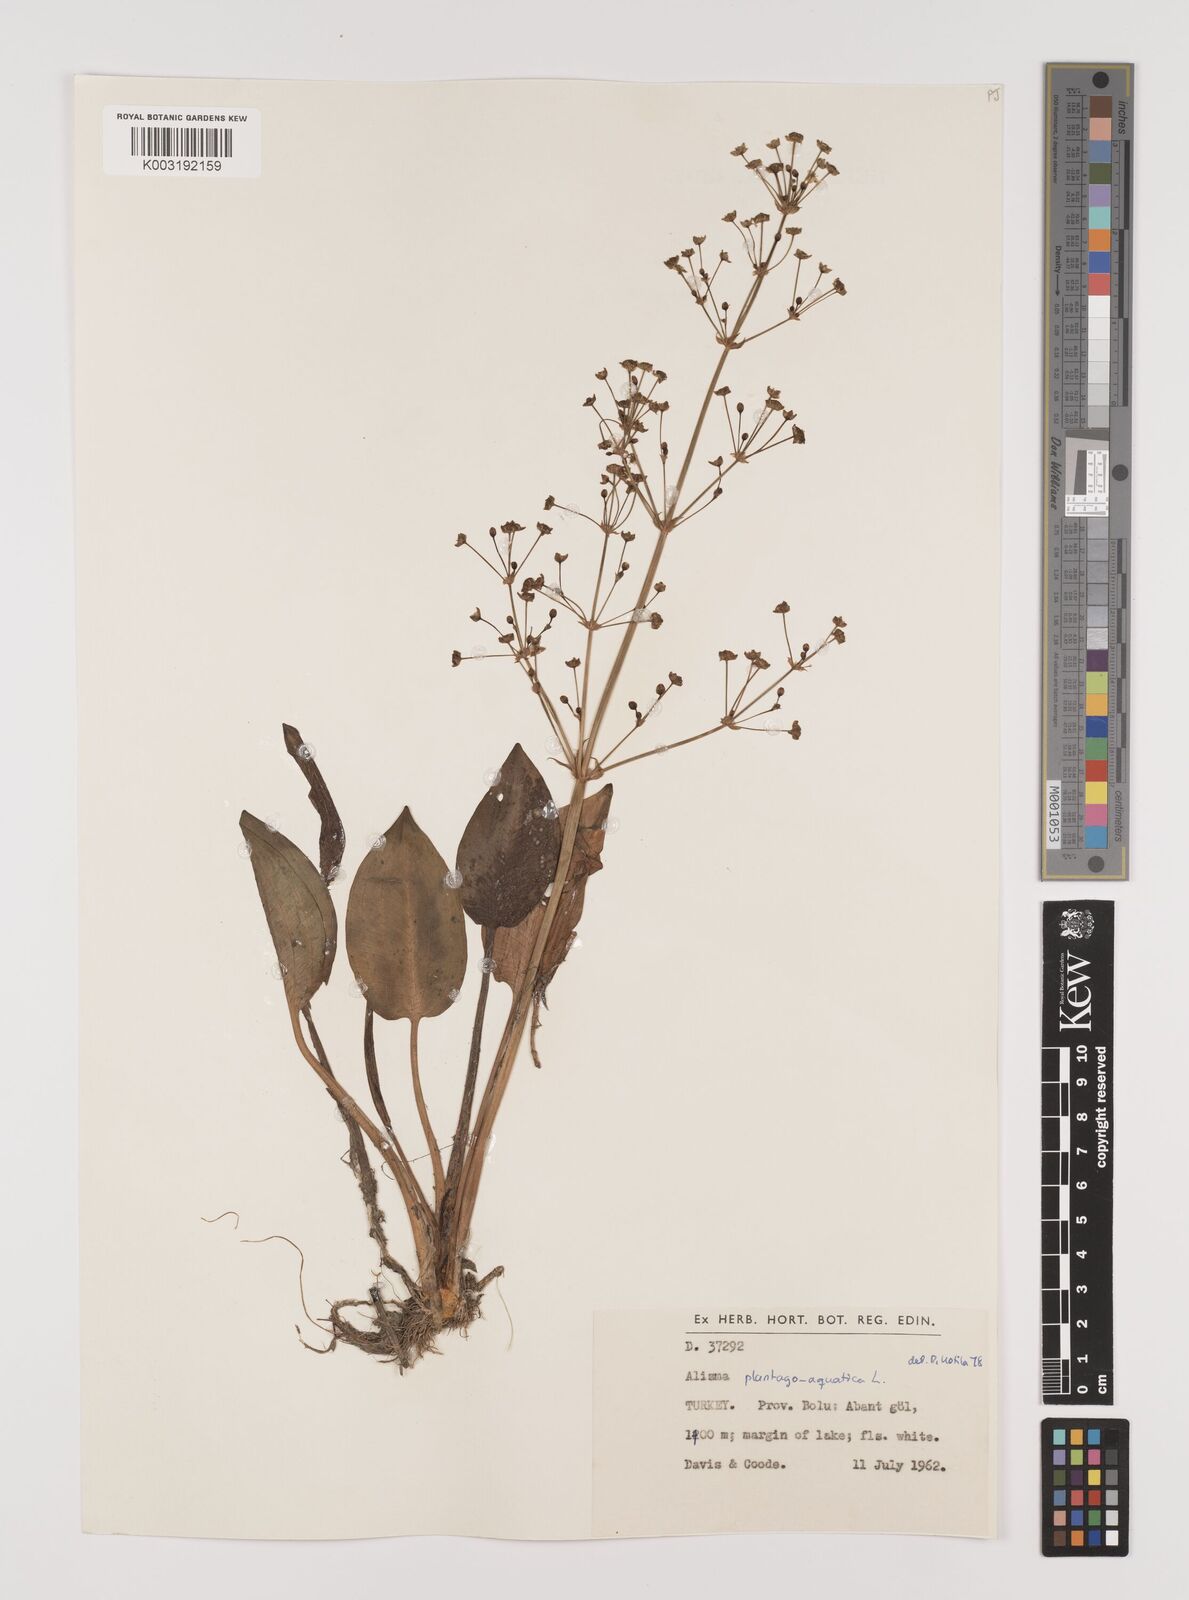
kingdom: Plantae
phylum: Tracheophyta
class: Liliopsida
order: Alismatales
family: Alismataceae
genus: Alisma
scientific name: Alisma plantago-aquatica
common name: Water-plantain
